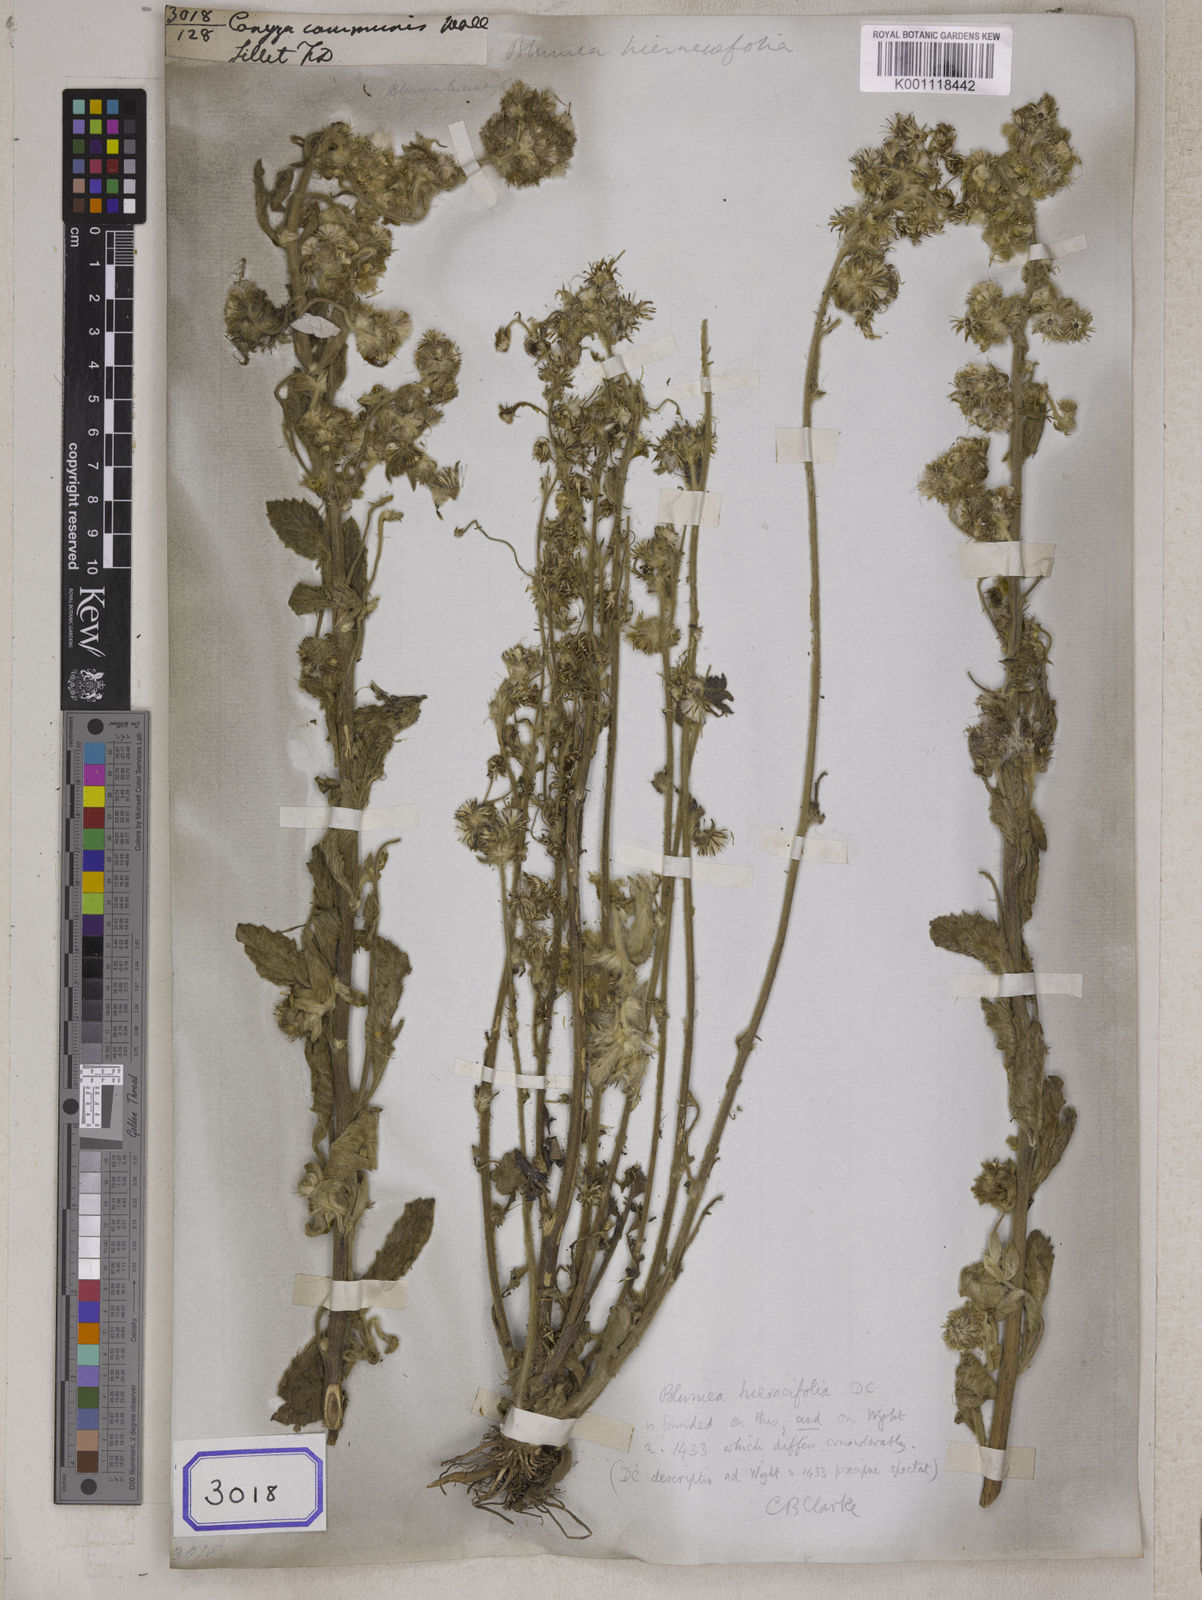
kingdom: Plantae
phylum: Tracheophyta
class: Magnoliopsida
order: Asterales
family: Asteraceae
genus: Blumea
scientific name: Blumea hieraciifolia
